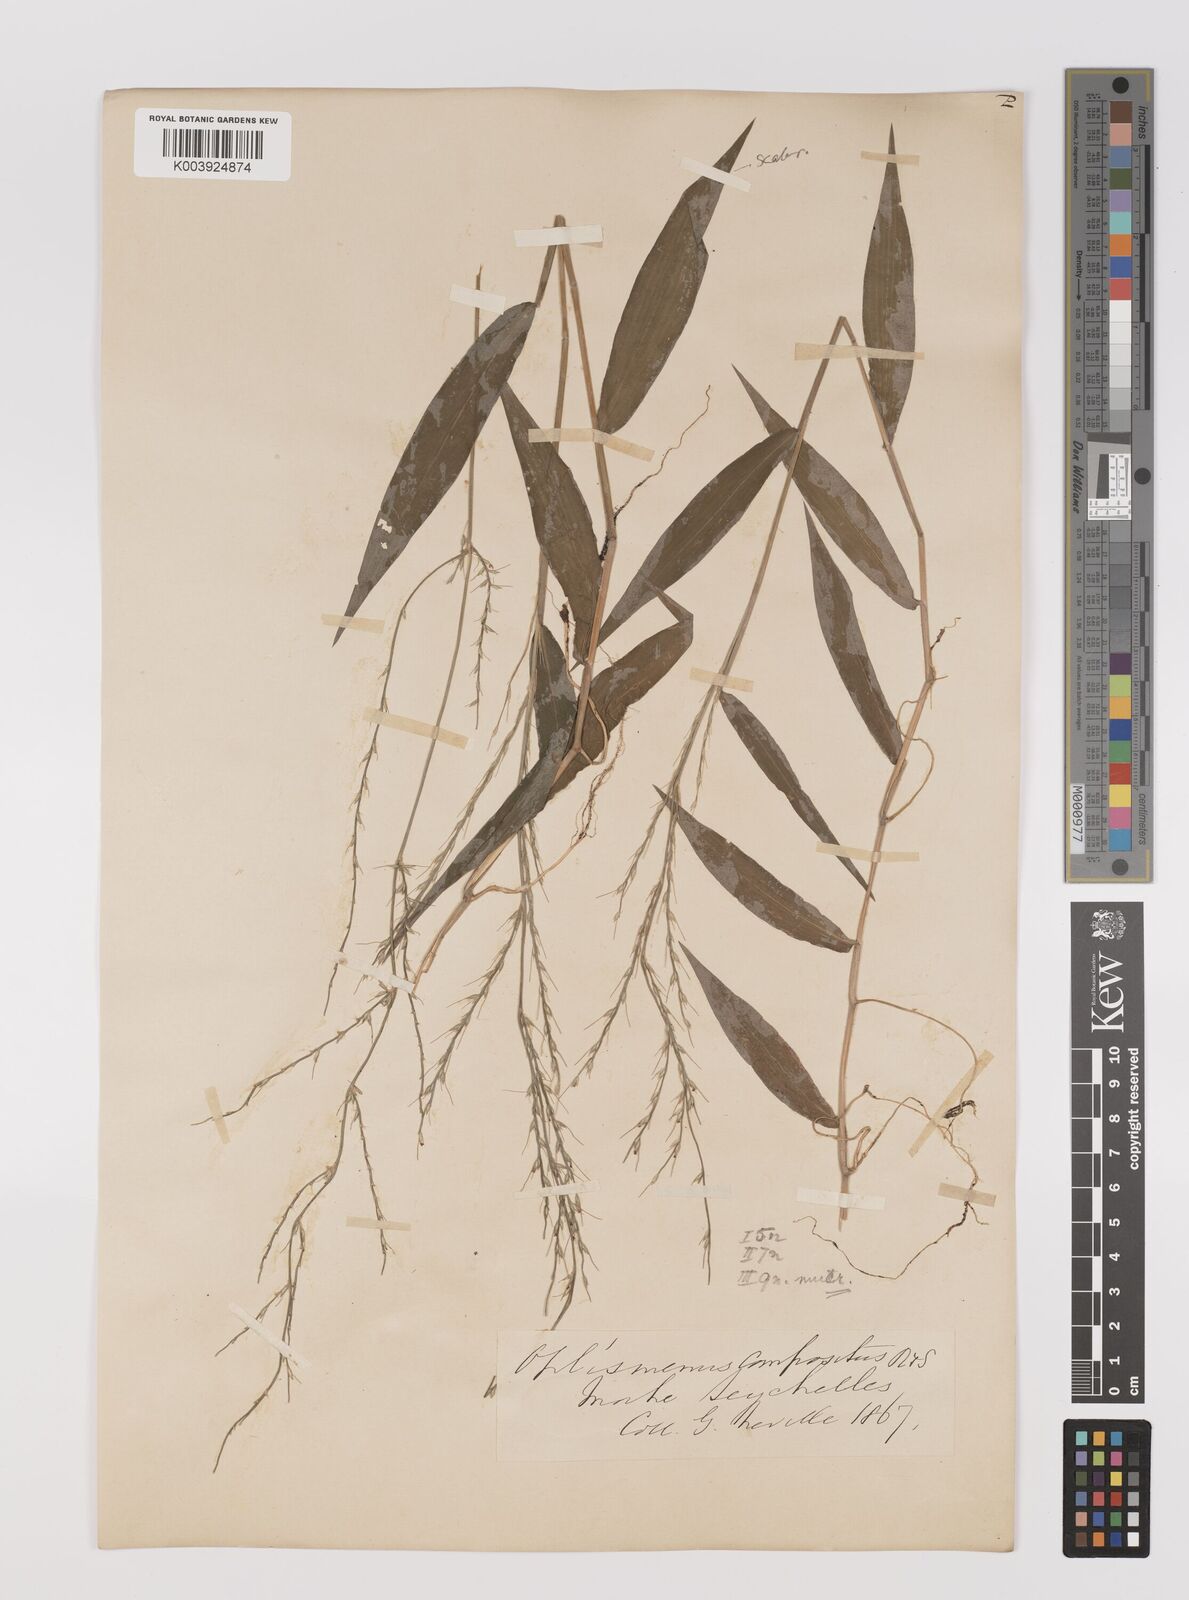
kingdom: Plantae
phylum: Tracheophyta
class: Liliopsida
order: Poales
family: Poaceae
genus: Oplismenus
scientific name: Oplismenus compositus
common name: Running mountain grass
